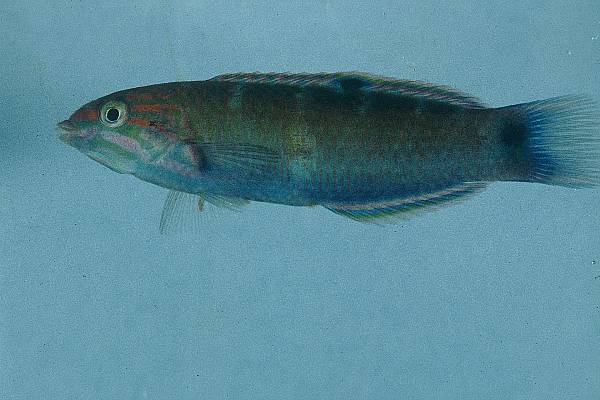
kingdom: Animalia
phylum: Chordata
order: Perciformes
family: Labridae
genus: Thalassoma
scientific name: Thalassoma lunare
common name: Blue wrasse
